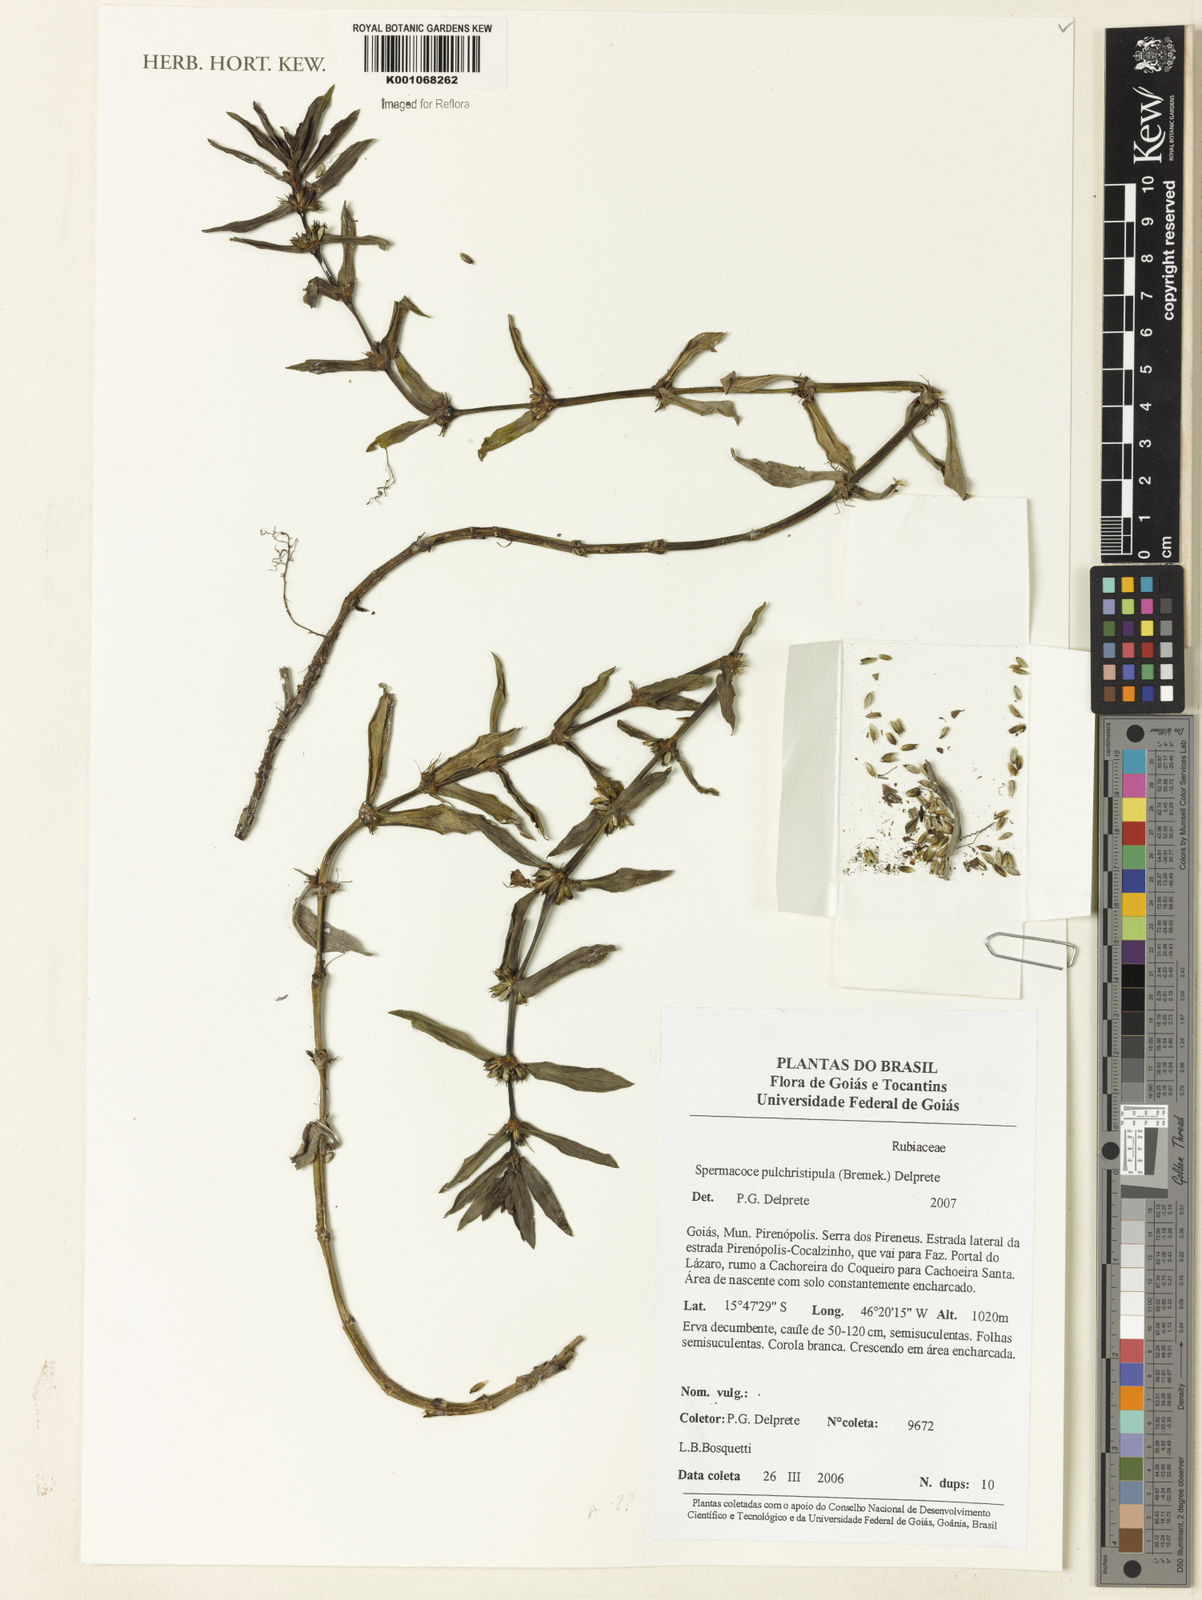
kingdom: Plantae
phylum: Tracheophyta
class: Magnoliopsida
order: Gentianales
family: Rubiaceae
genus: Spermacoce
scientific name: Spermacoce pulchristipula
